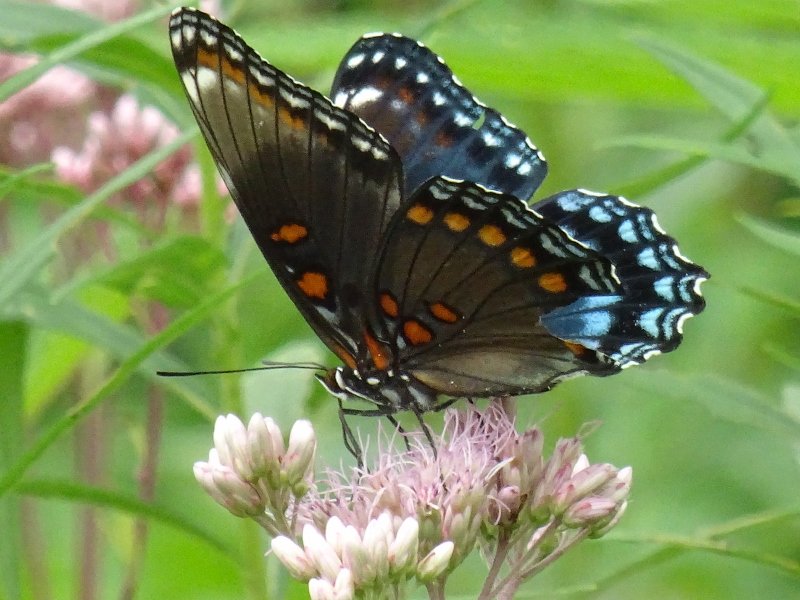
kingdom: Animalia
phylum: Arthropoda
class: Insecta
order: Lepidoptera
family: Nymphalidae
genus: Limenitis
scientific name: Limenitis astyanax
